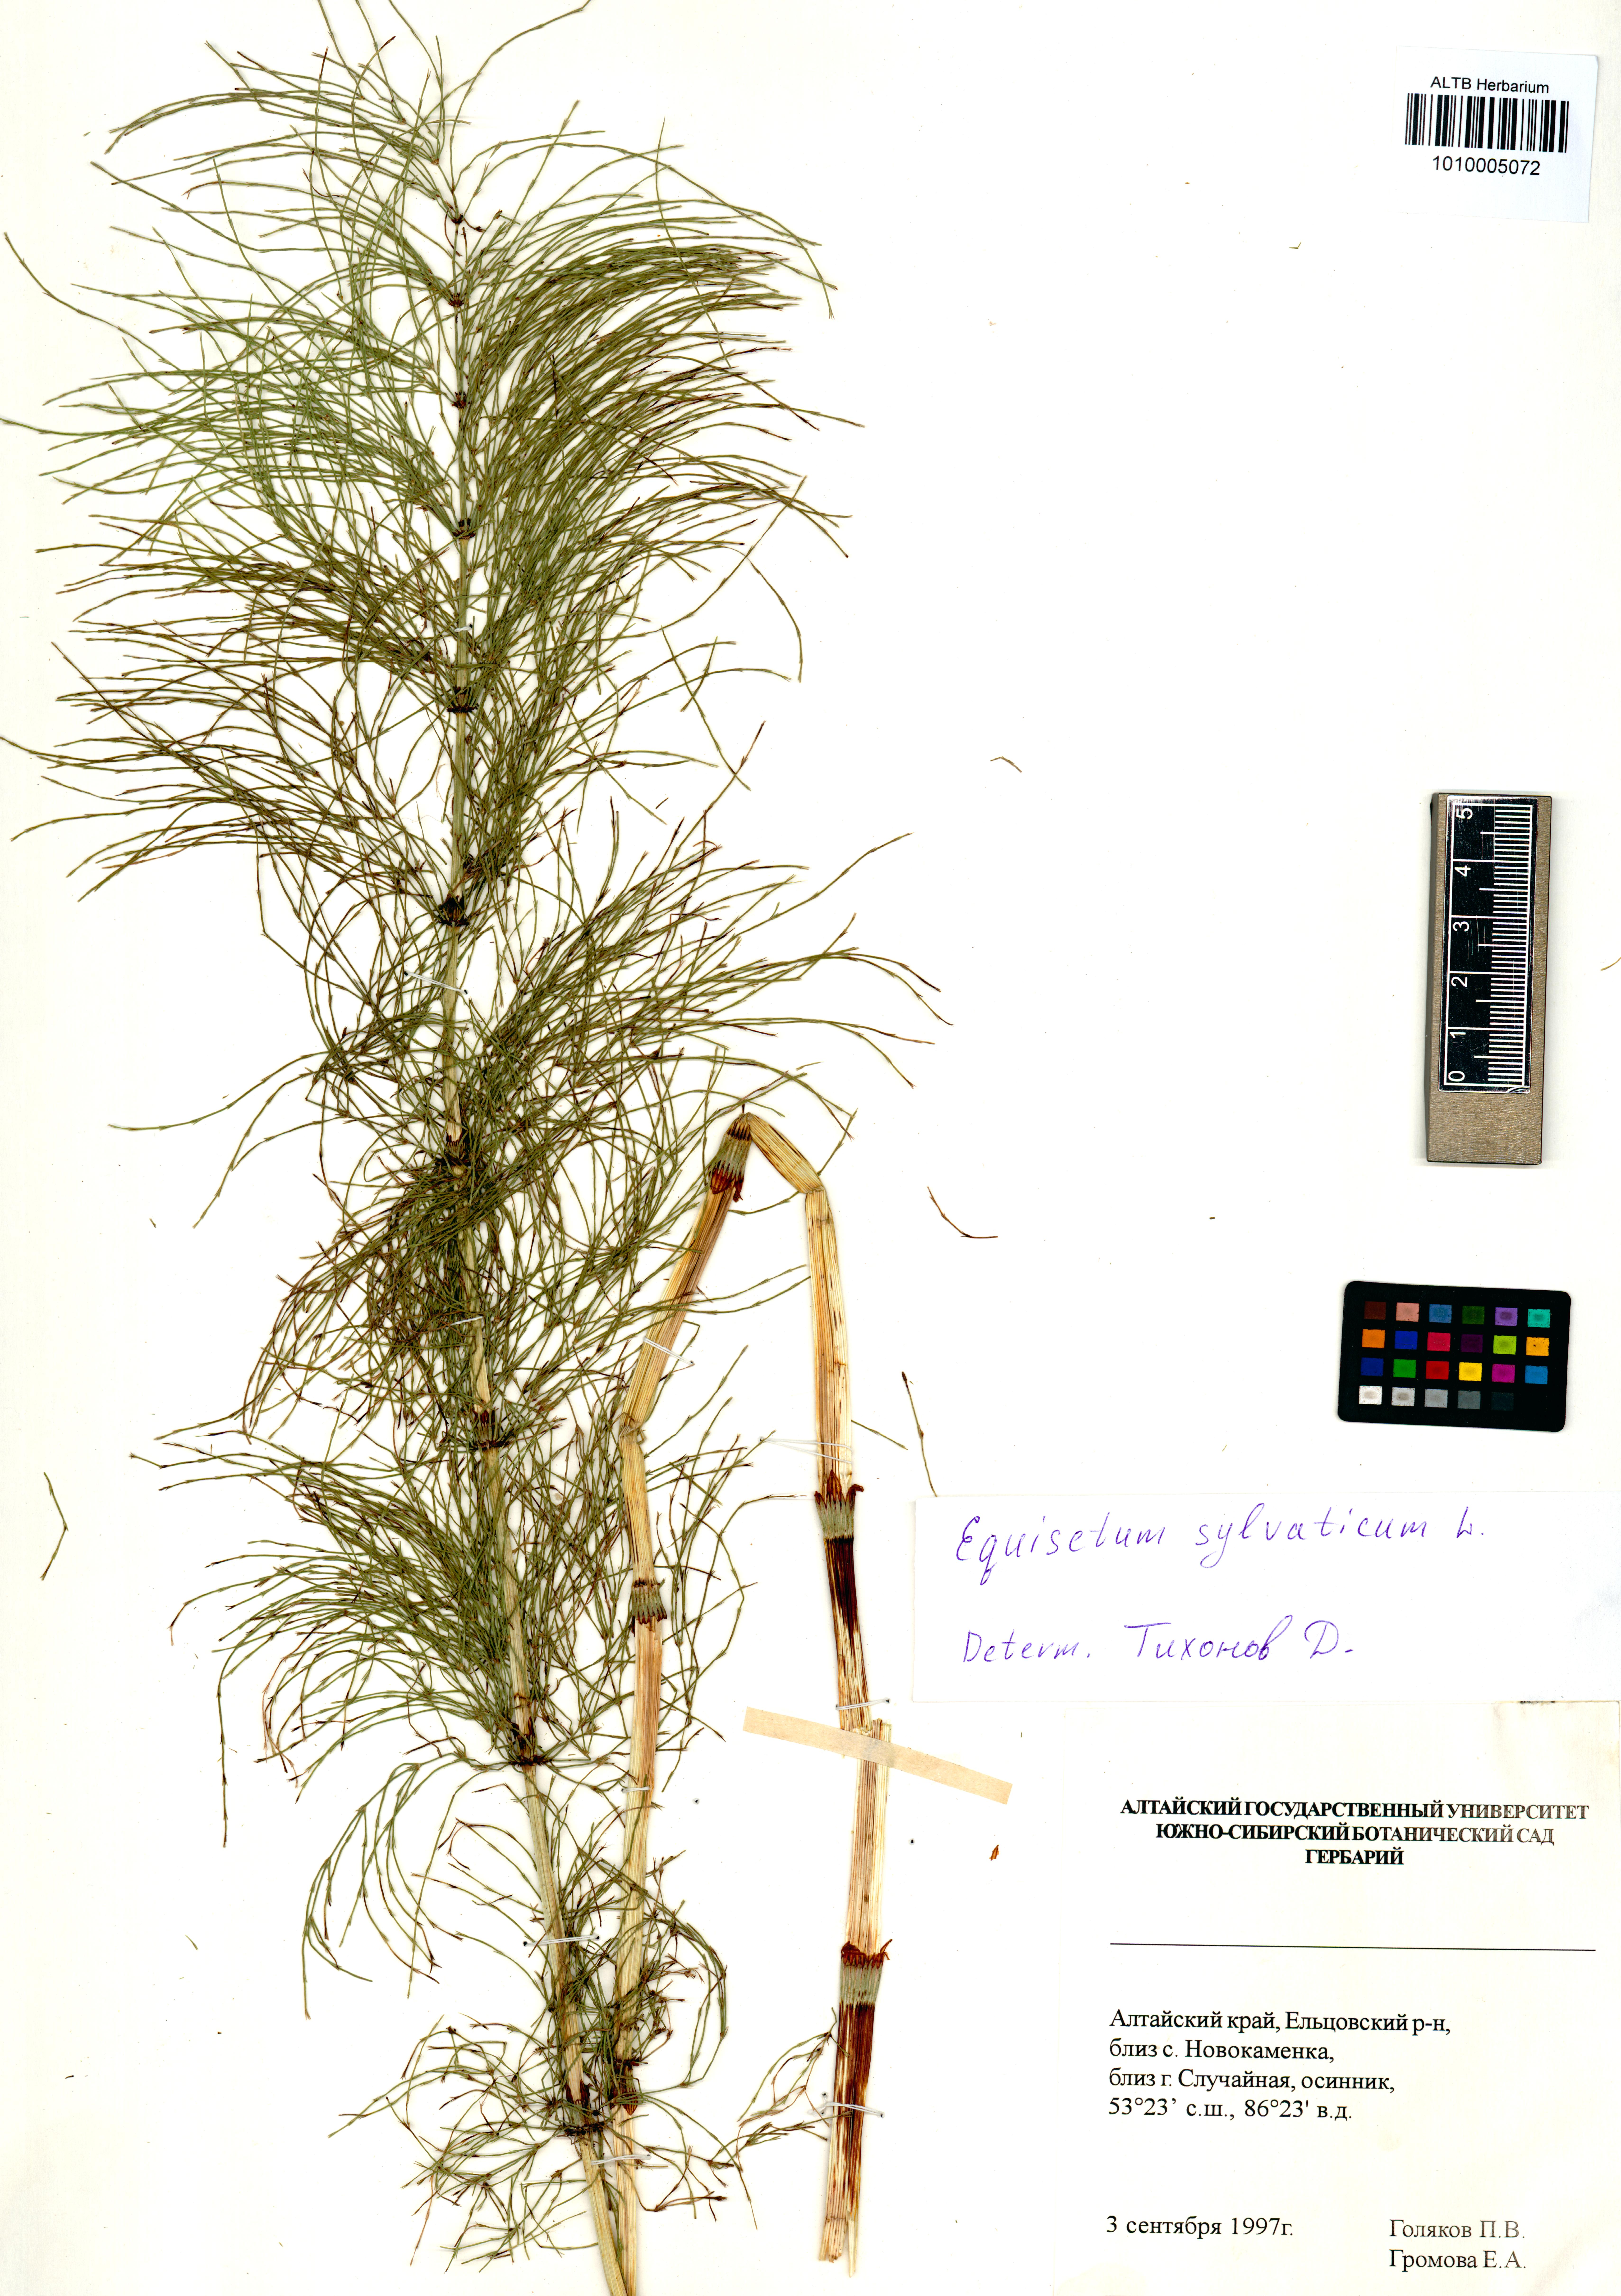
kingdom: Plantae
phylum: Tracheophyta
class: Polypodiopsida
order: Equisetales
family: Equisetaceae
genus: Equisetum
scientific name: Equisetum sylvaticum
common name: Wood horsetail
